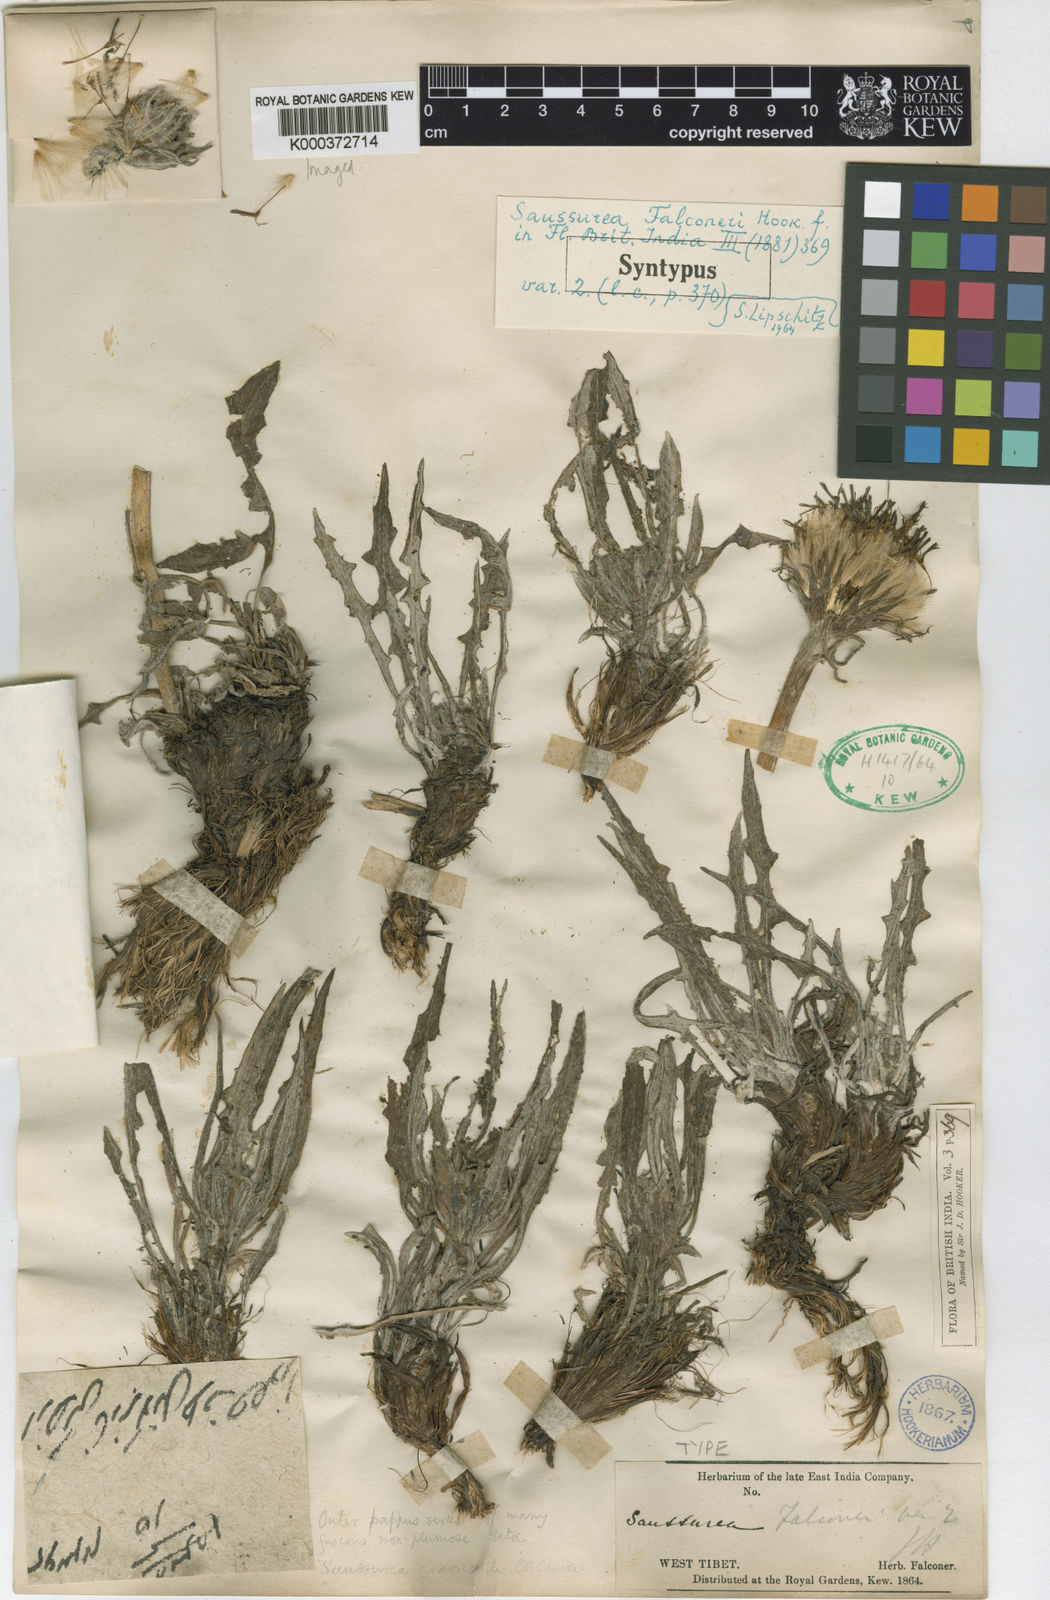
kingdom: Plantae
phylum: Tracheophyta
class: Magnoliopsida
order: Asterales
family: Asteraceae
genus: Saussurea
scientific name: Saussurea schlagintweitii
